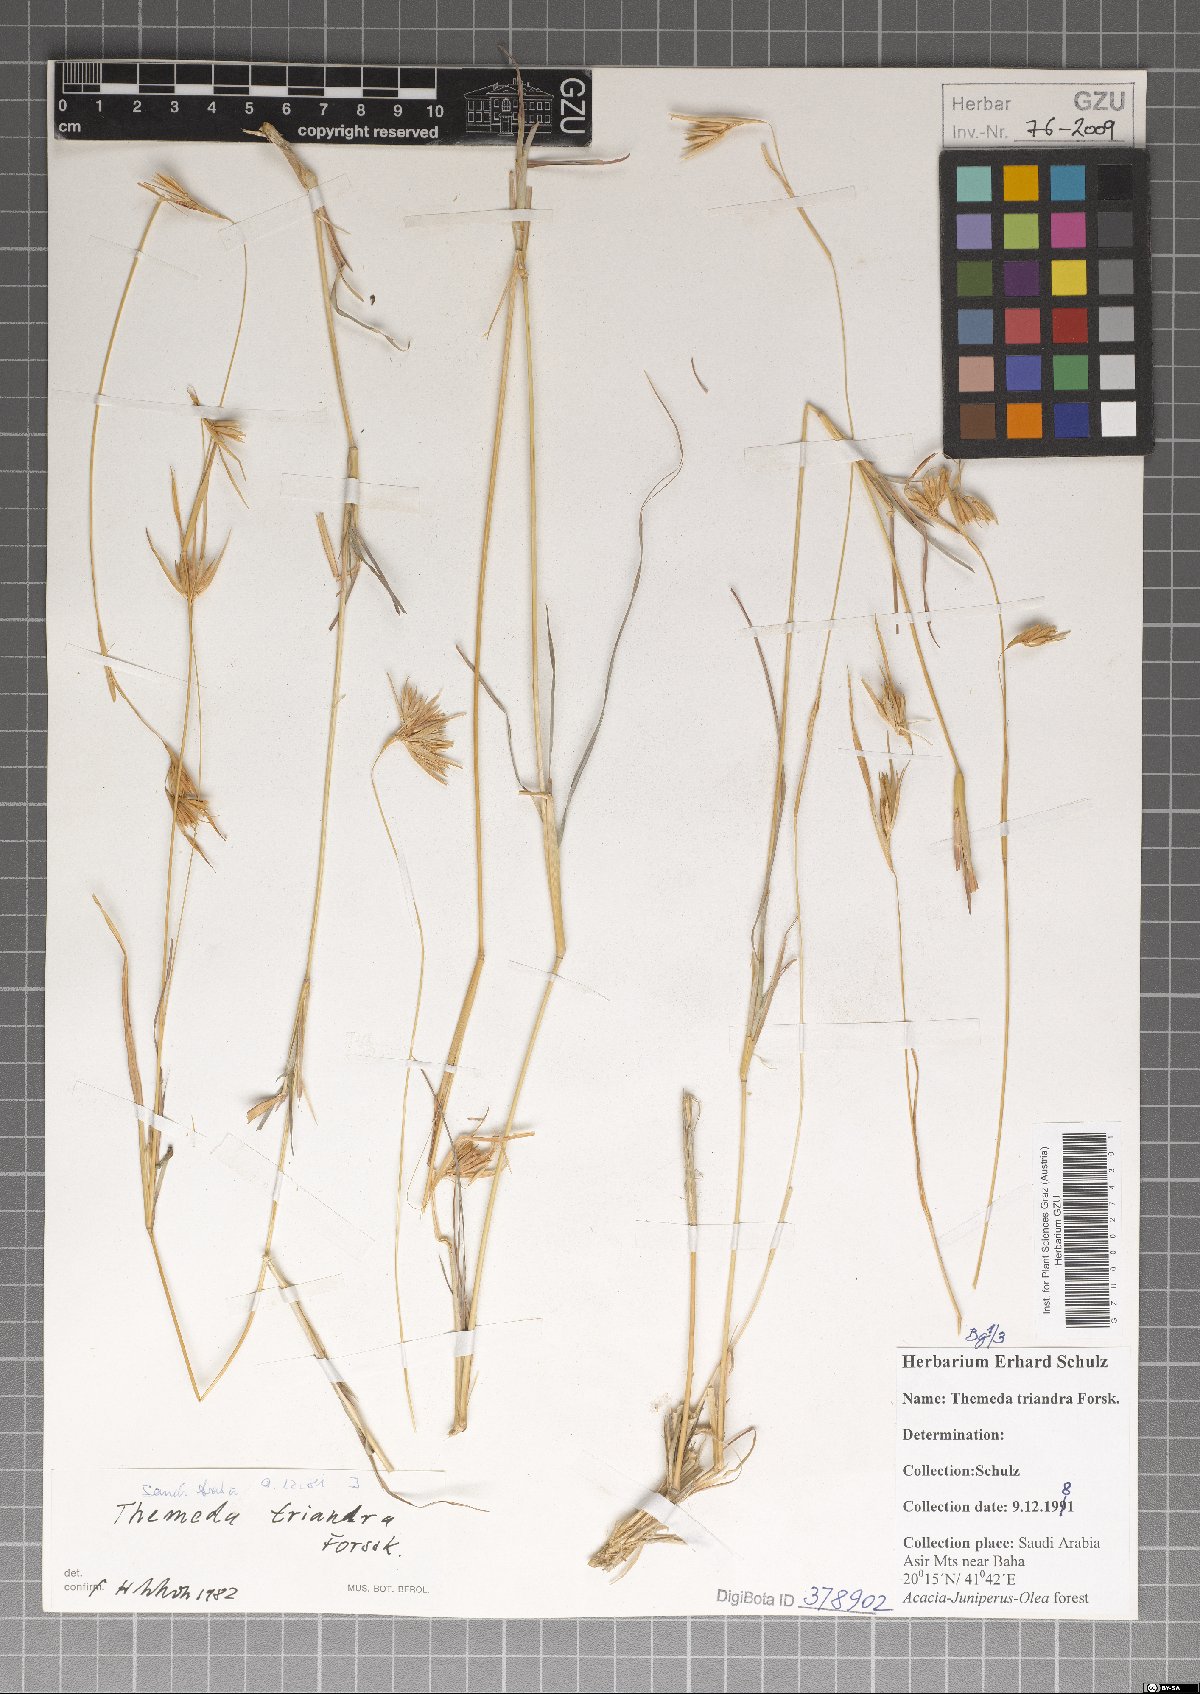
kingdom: Plantae
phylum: Tracheophyta
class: Liliopsida
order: Poales
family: Poaceae
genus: Themeda
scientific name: Themeda triandra
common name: Kangaroo grass
